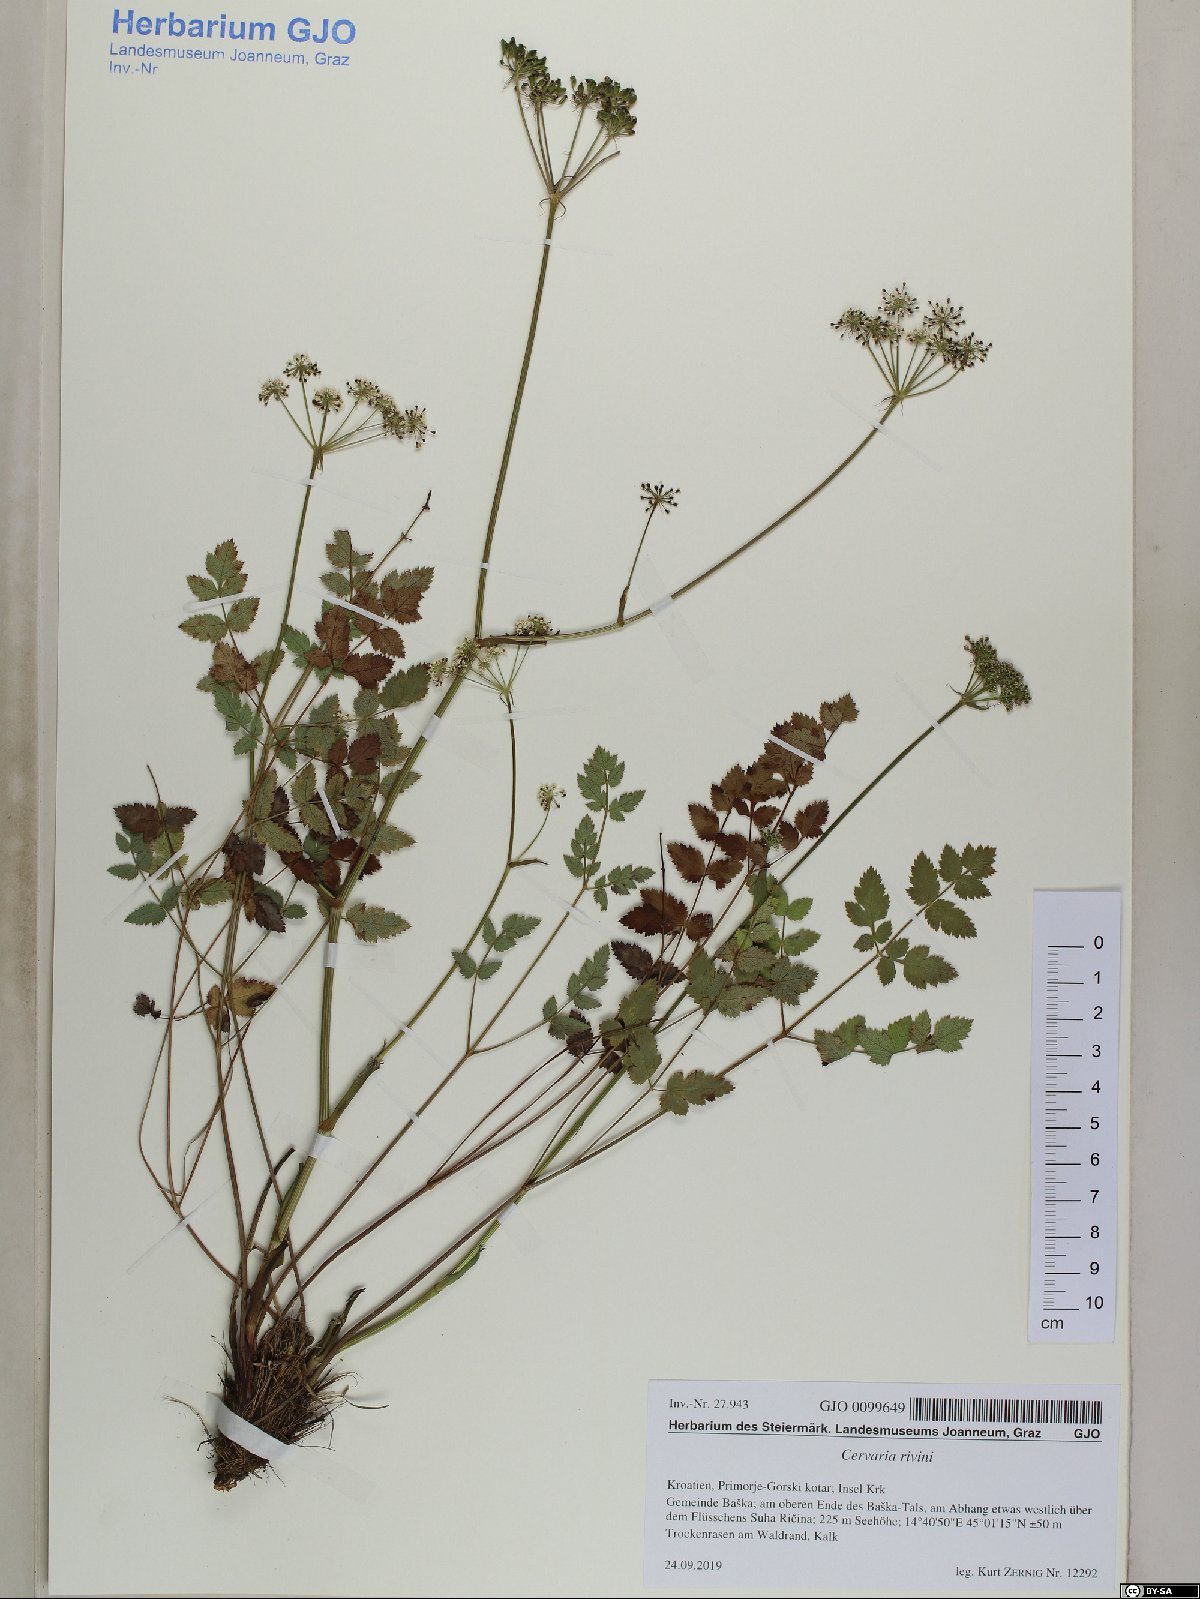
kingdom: Plantae
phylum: Tracheophyta
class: Magnoliopsida
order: Apiales
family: Apiaceae
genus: Cervaria
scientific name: Cervaria rivini
